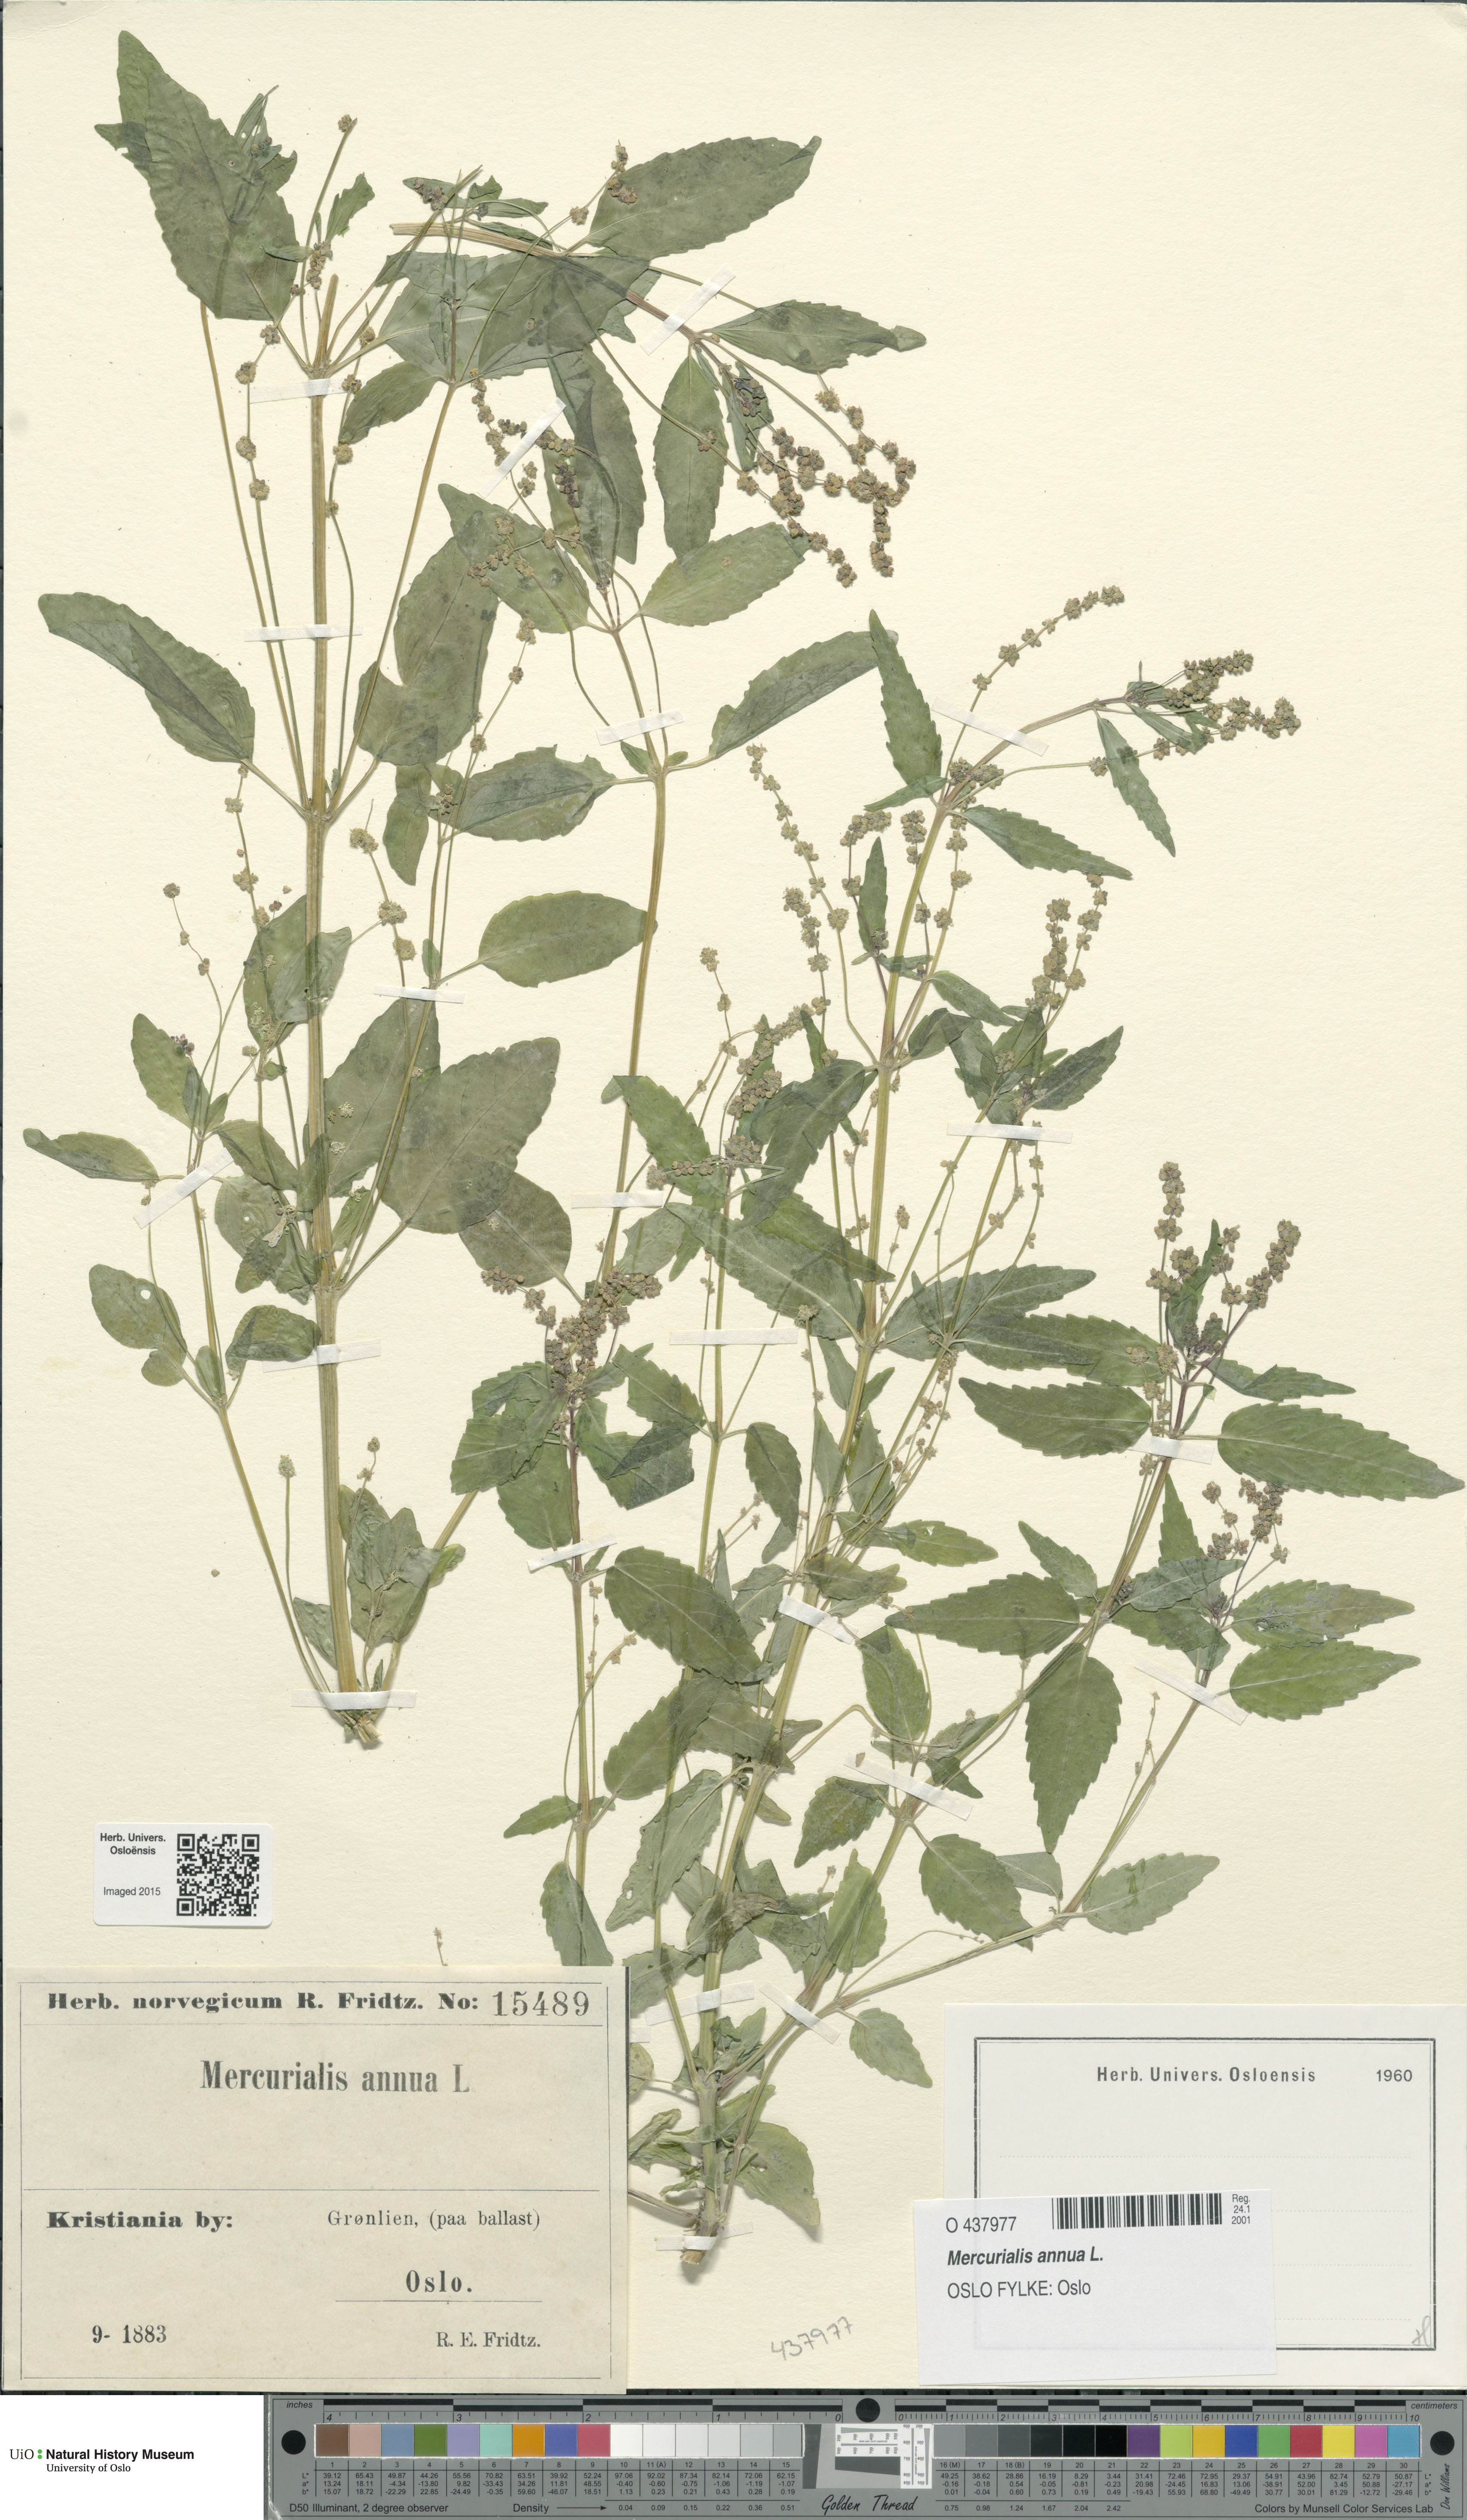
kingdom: Plantae
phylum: Tracheophyta
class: Magnoliopsida
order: Malpighiales
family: Euphorbiaceae
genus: Mercurialis
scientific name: Mercurialis annua
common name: Annual mercury
